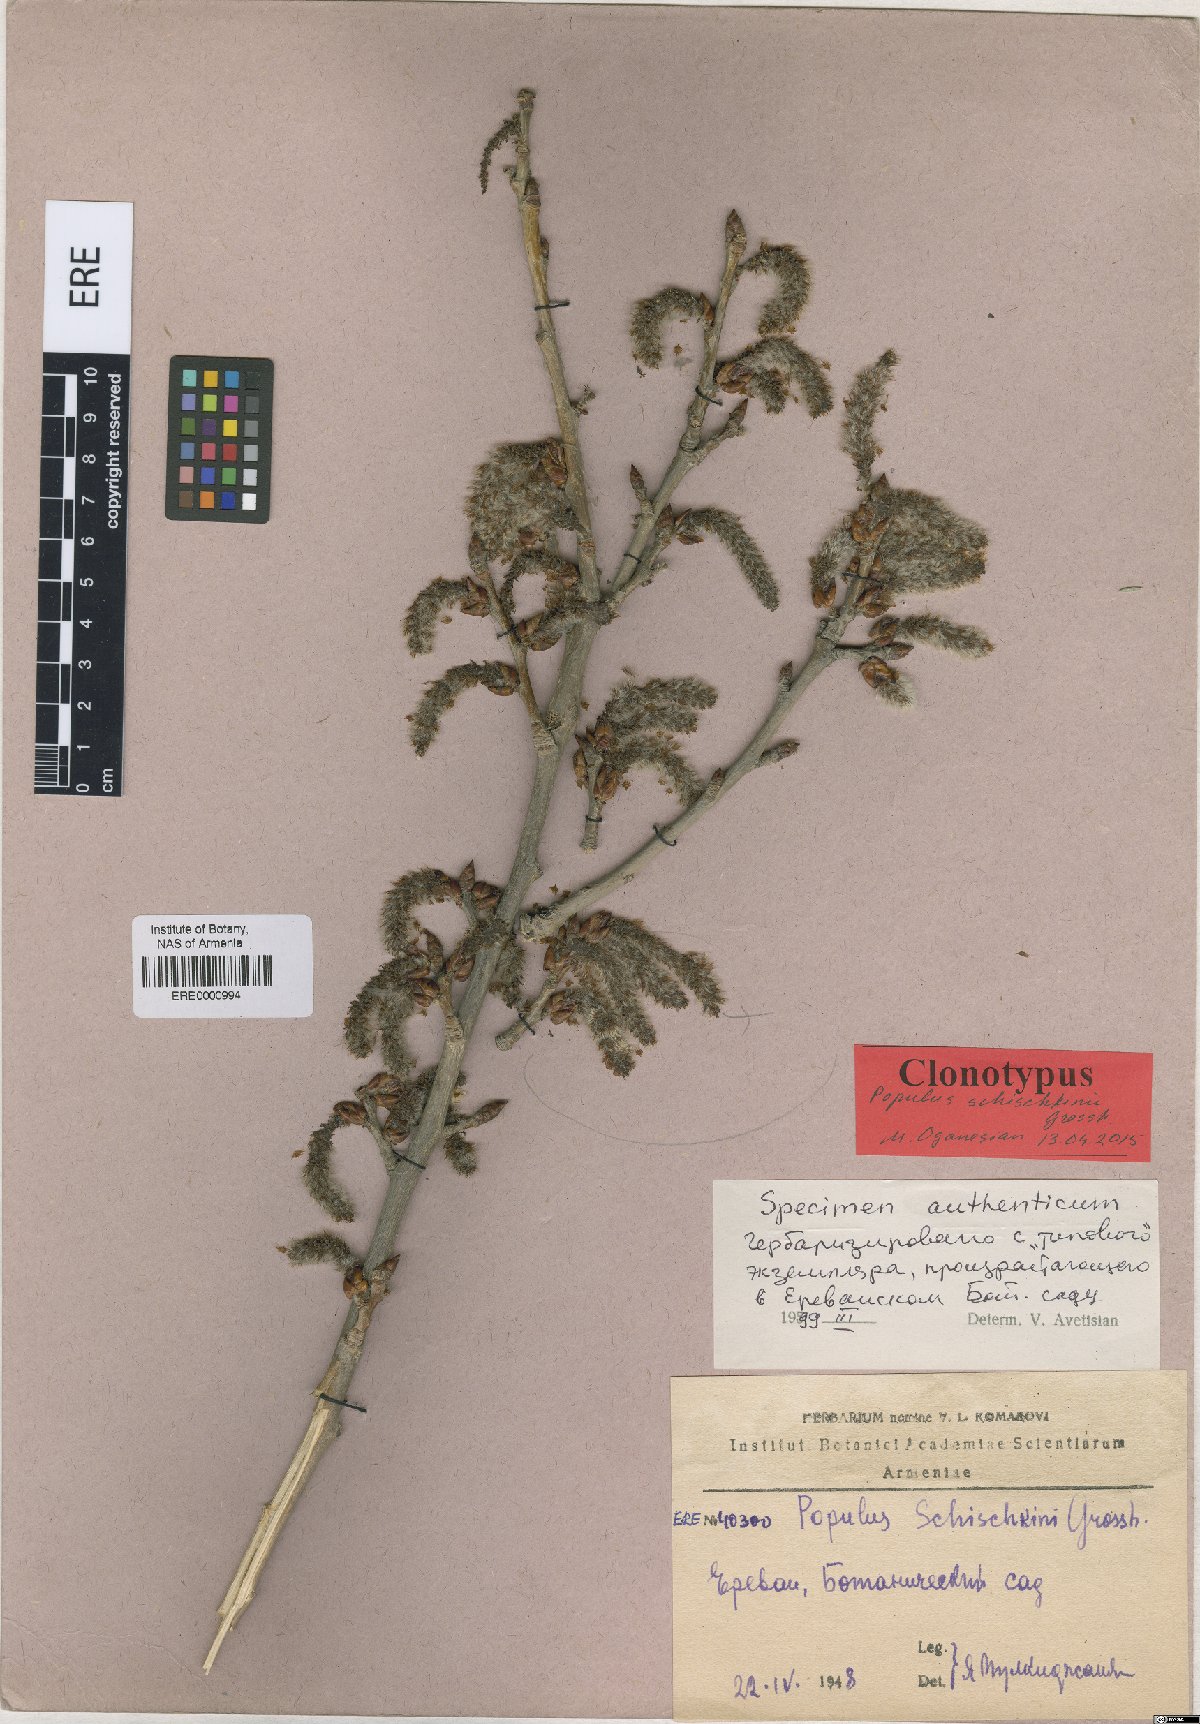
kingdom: Plantae
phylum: Tracheophyta
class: Magnoliopsida
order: Malpighiales
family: Salicaceae
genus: Populus
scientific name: Populus canescens
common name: Gray poplar
